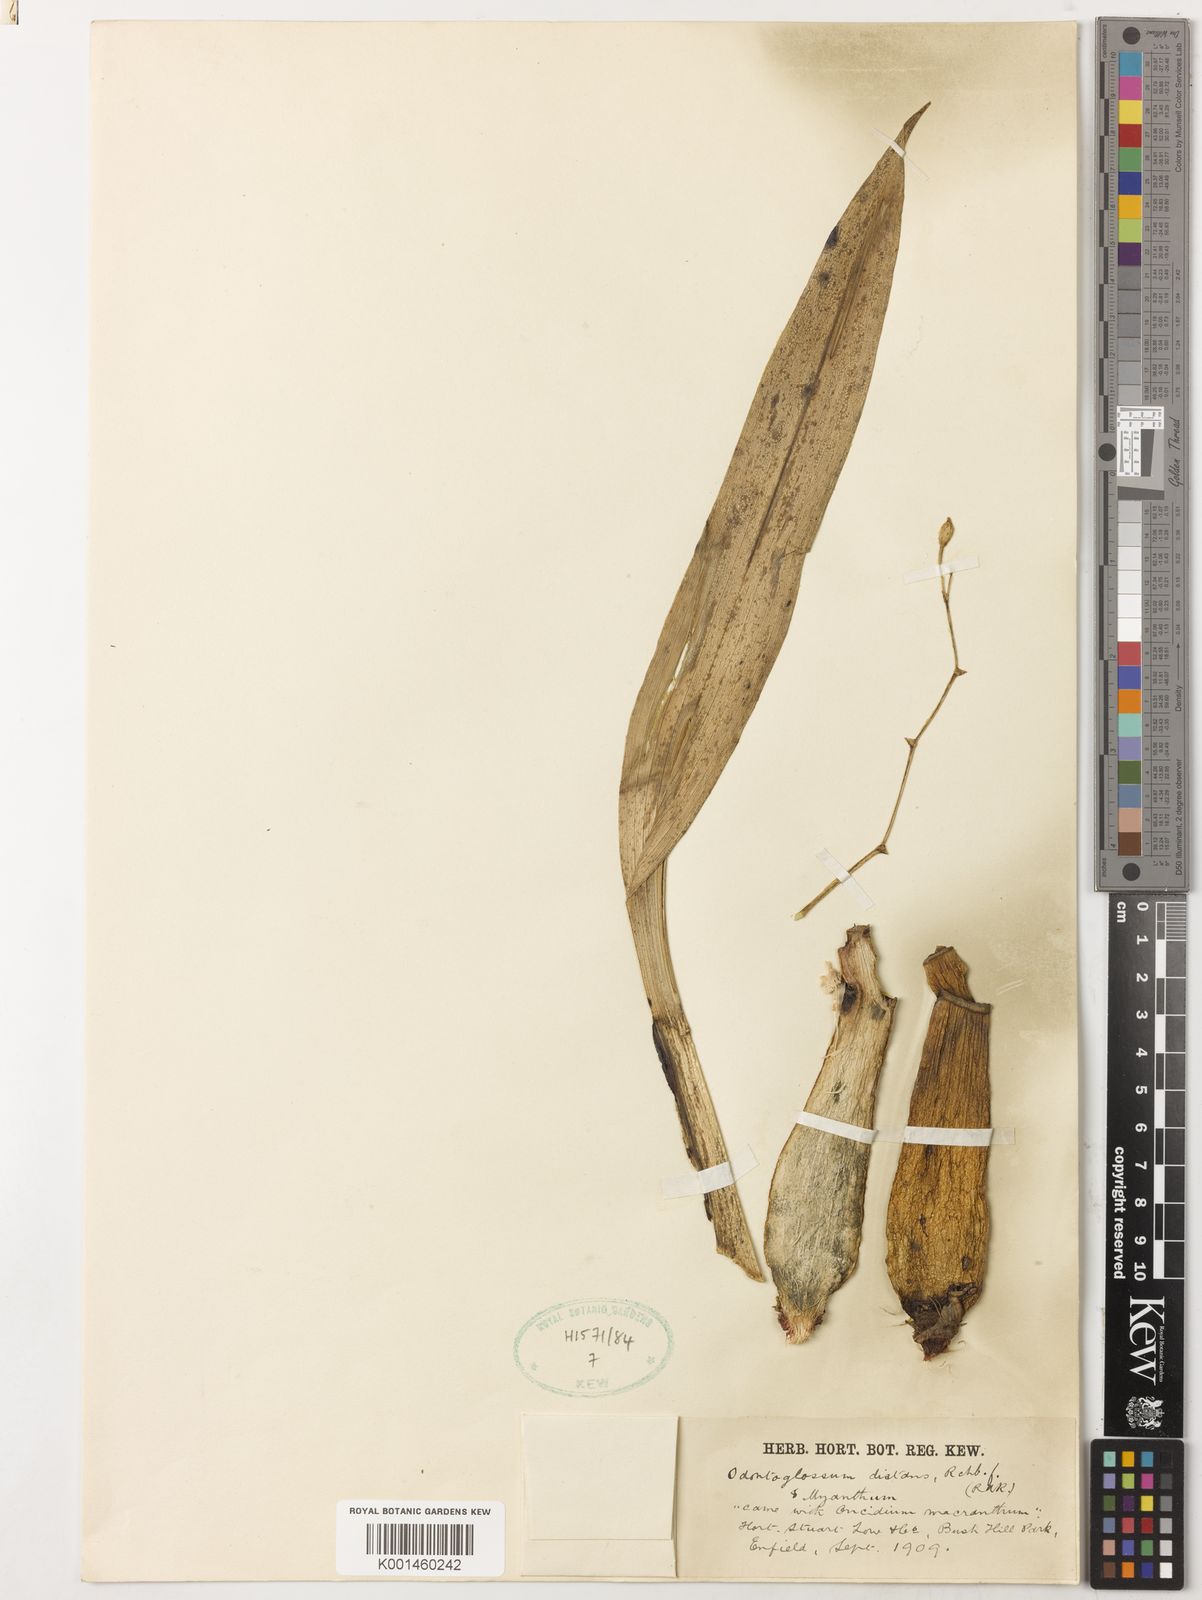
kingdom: Plantae
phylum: Tracheophyta
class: Liliopsida
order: Asparagales
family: Orchidaceae
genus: Cyrtochilum
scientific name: Cyrtochilum distans
